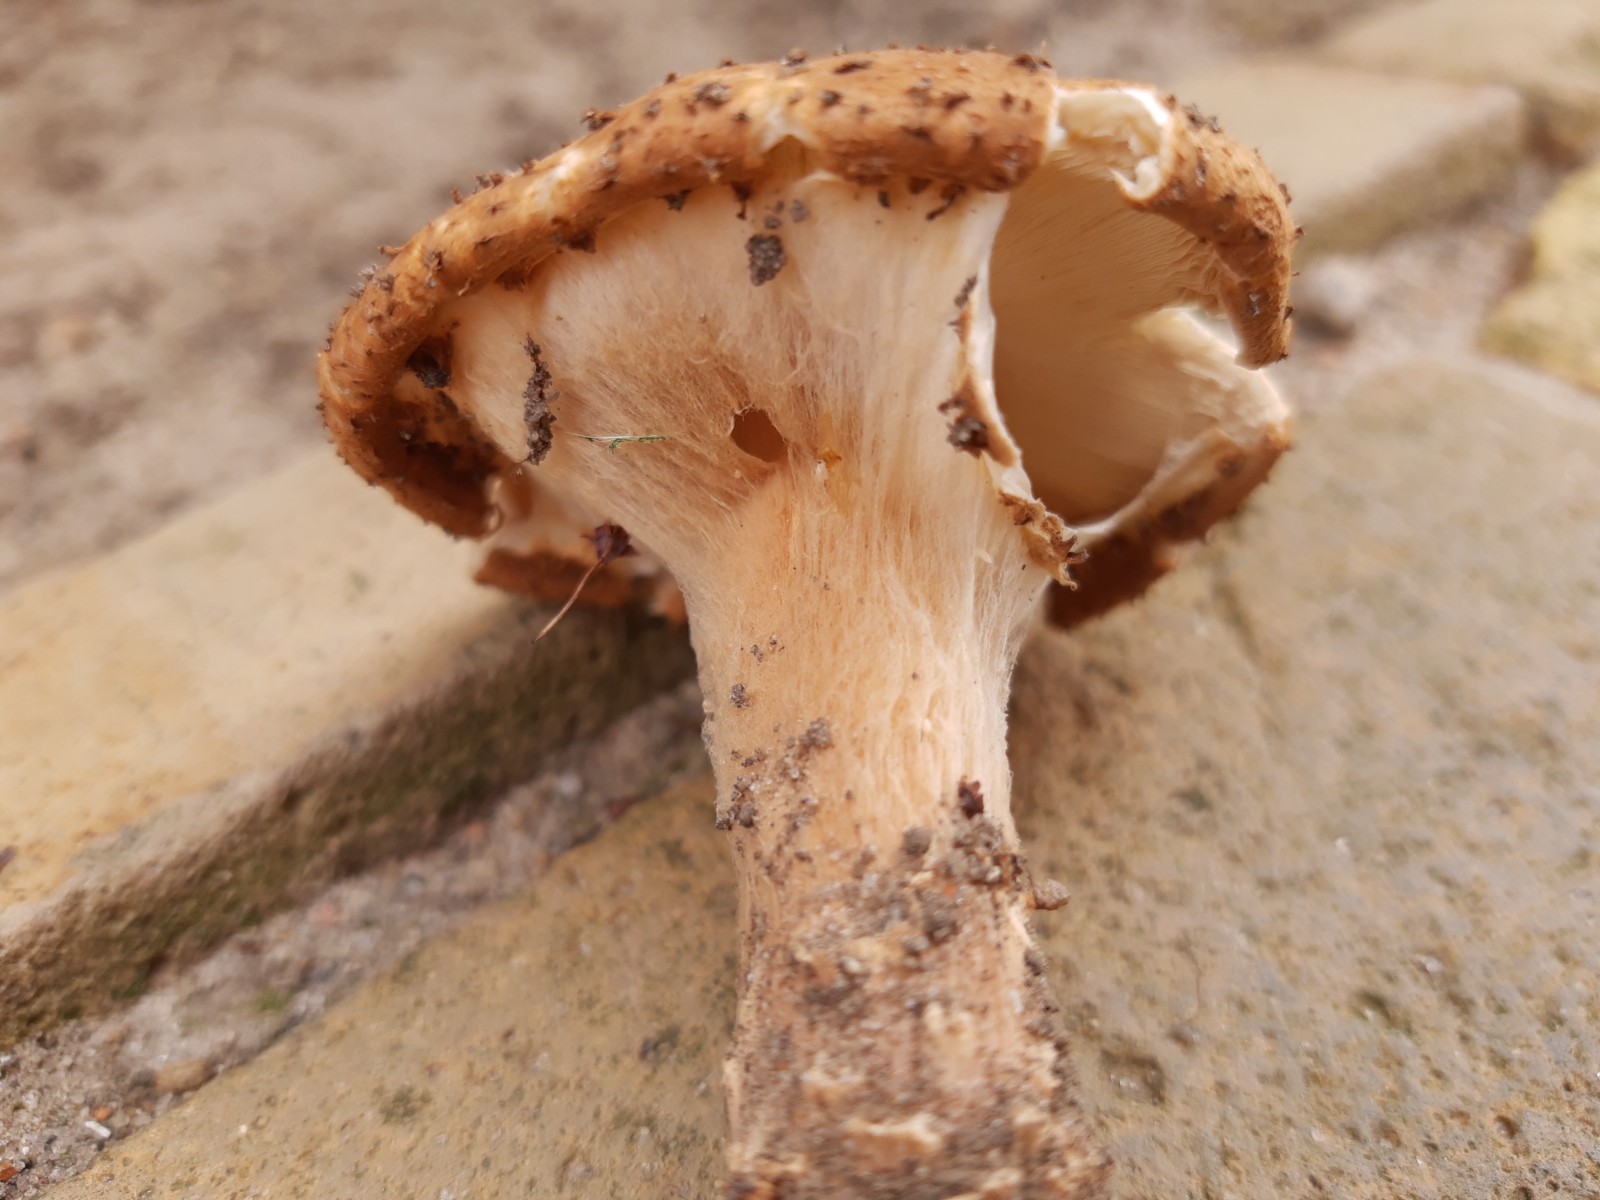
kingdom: Fungi
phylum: Basidiomycota
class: Agaricomycetes
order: Agaricales
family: Agaricaceae
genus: Echinoderma
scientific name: Echinoderma asperum
